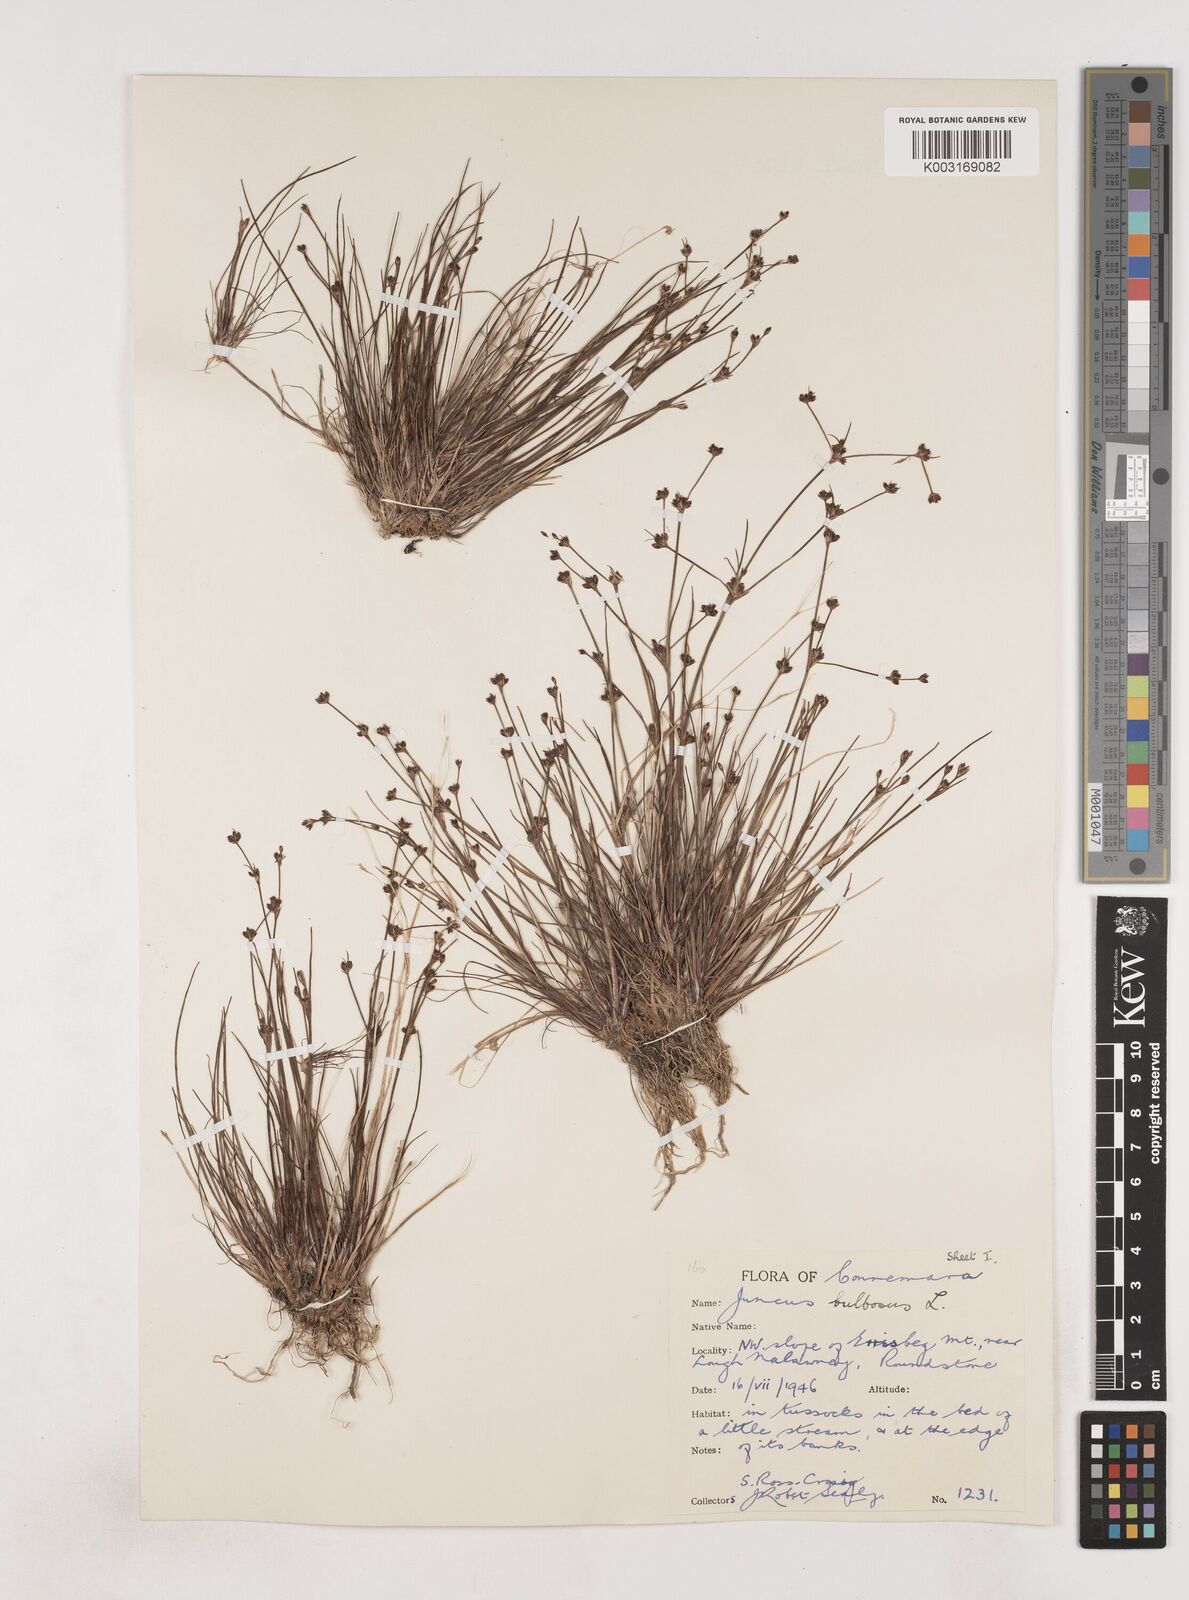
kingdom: Plantae
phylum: Tracheophyta
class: Liliopsida
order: Poales
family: Juncaceae
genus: Juncus
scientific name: Juncus bulbosus
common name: Bulbous rush
